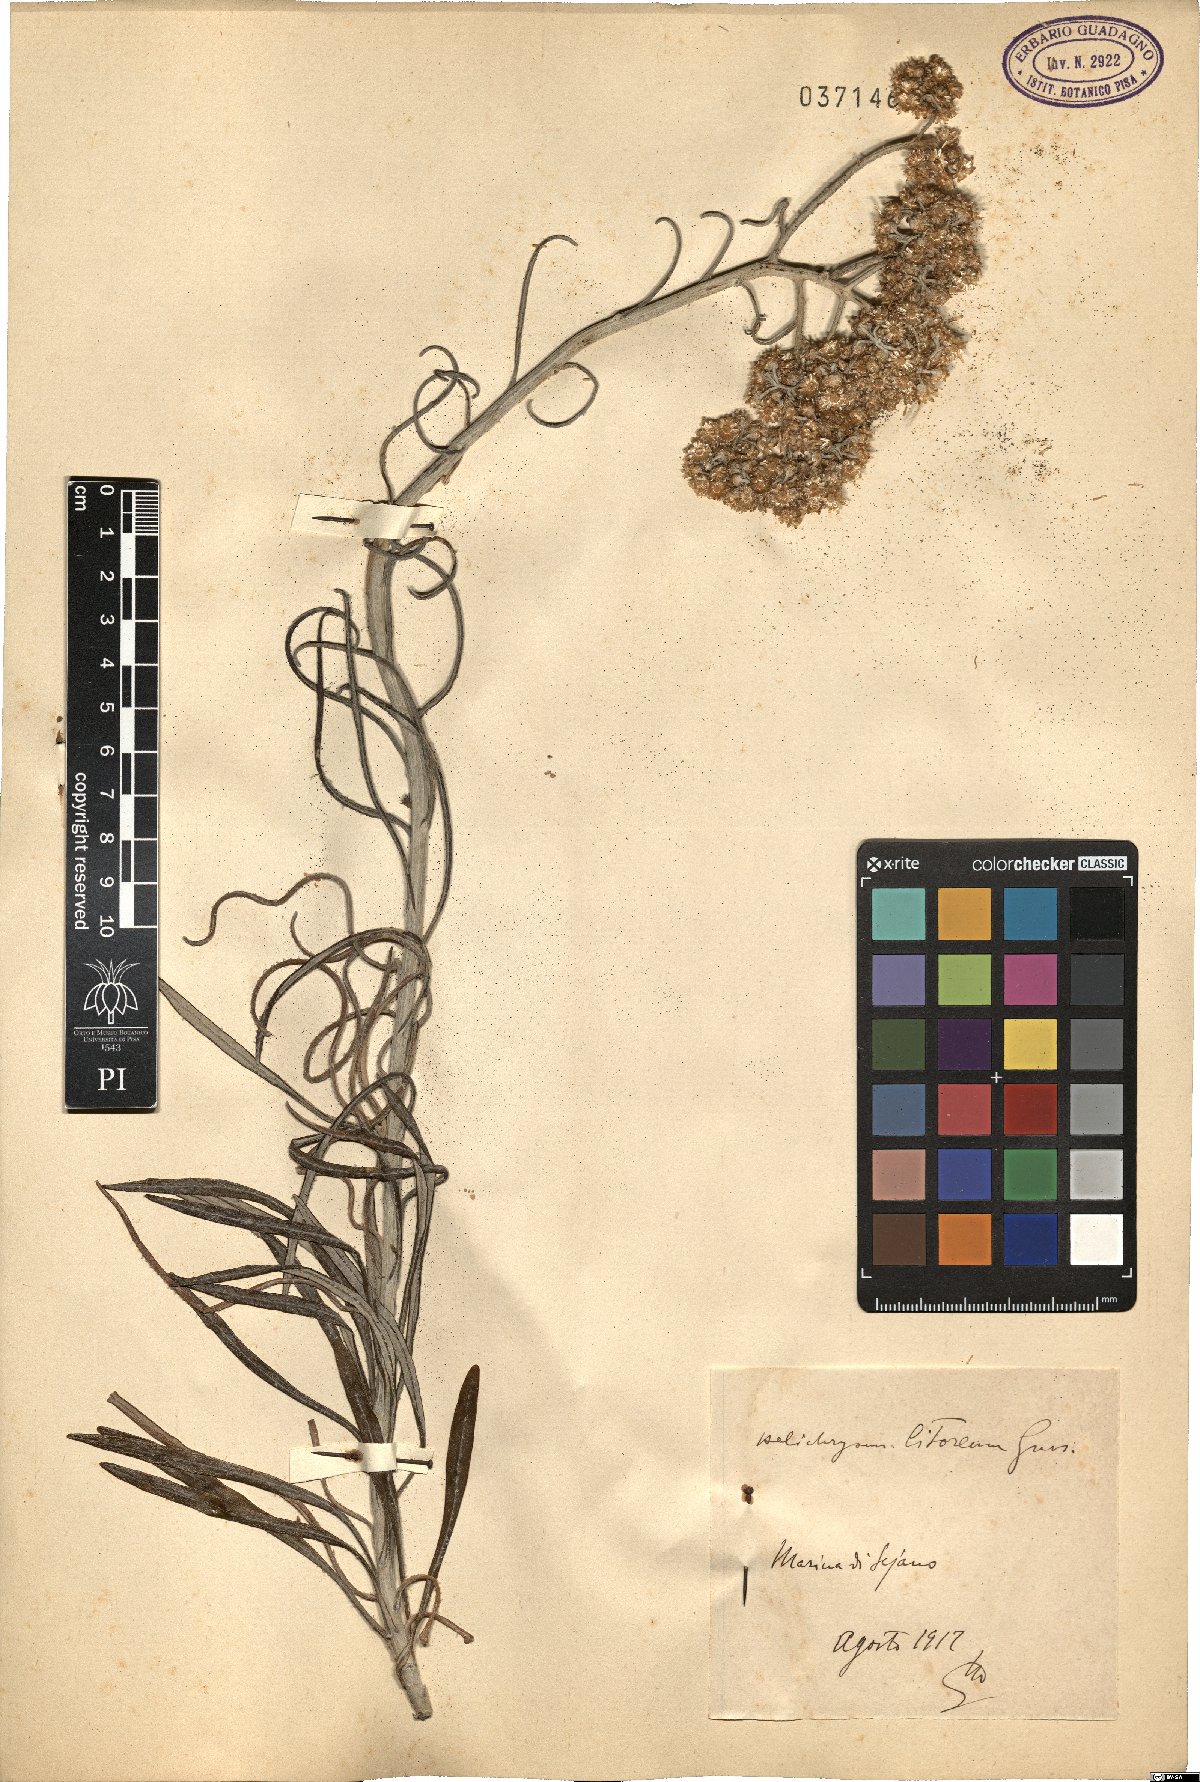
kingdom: Plantae
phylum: Tracheophyta
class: Magnoliopsida
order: Asterales
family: Asteraceae
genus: Helichrysum
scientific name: Helichrysum litoreum
